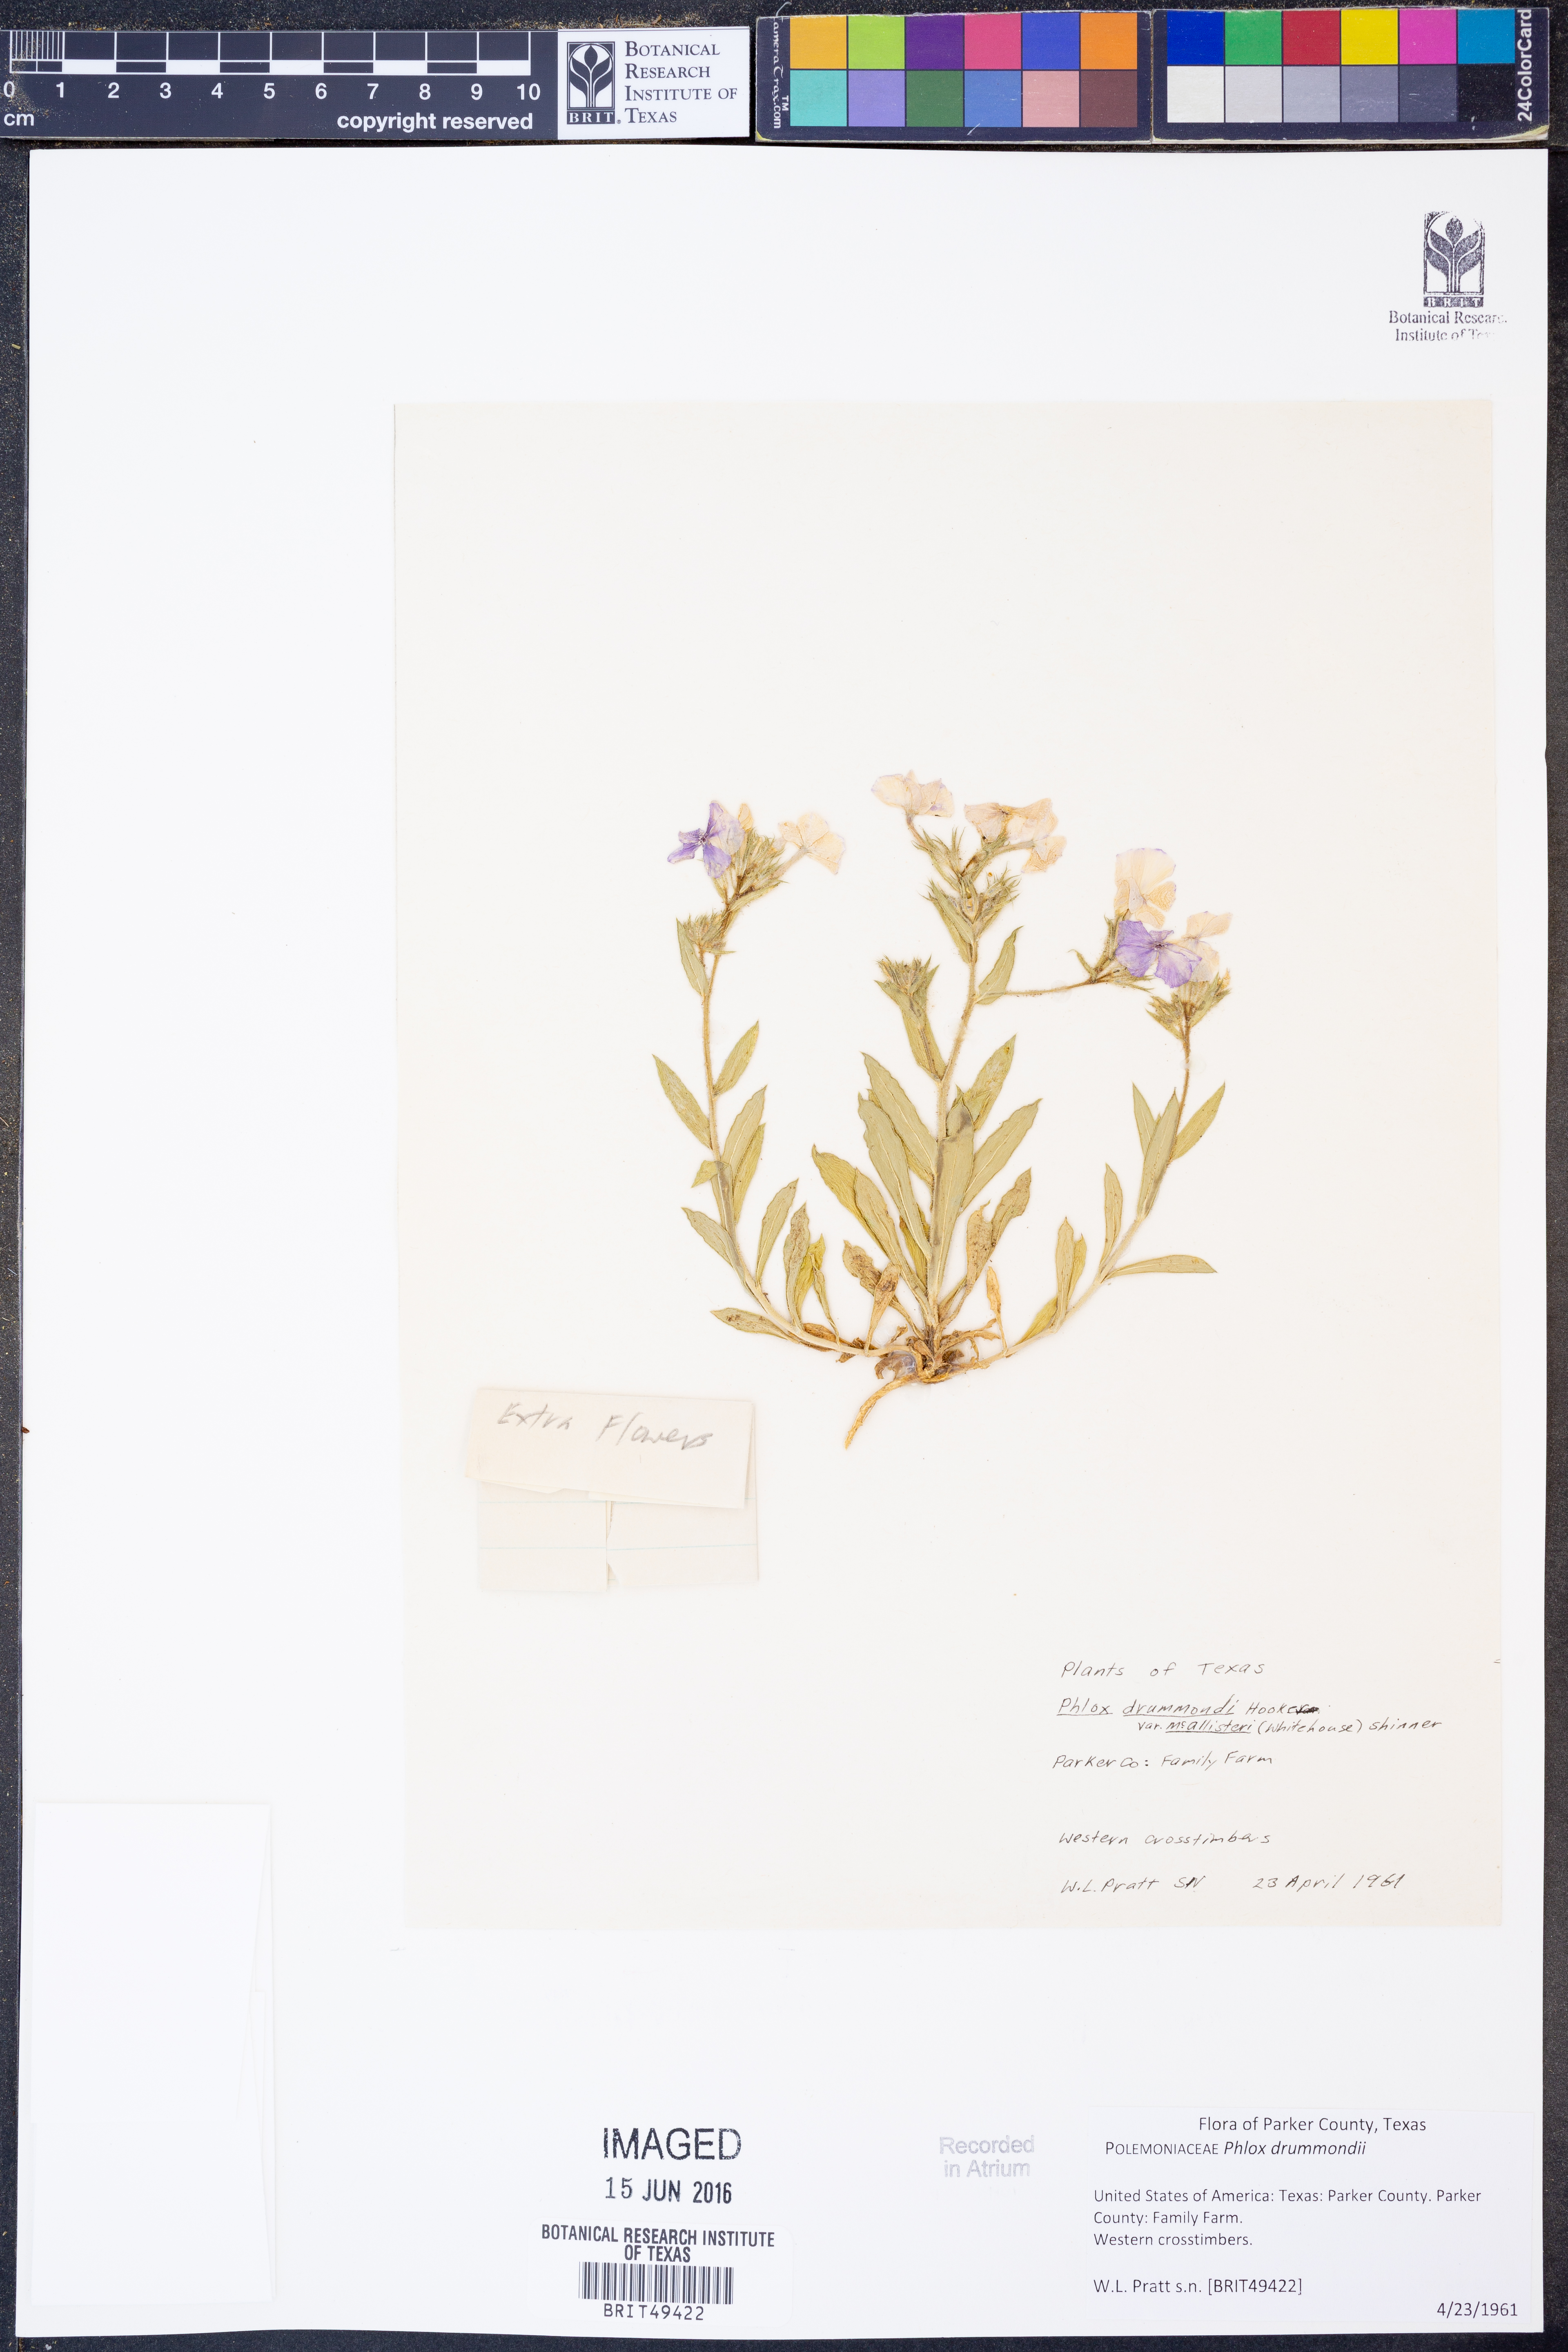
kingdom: Plantae
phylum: Tracheophyta
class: Magnoliopsida
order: Ericales
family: Polemoniaceae
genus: Phlox
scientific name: Phlox drummondii
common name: Drummond's phlox
